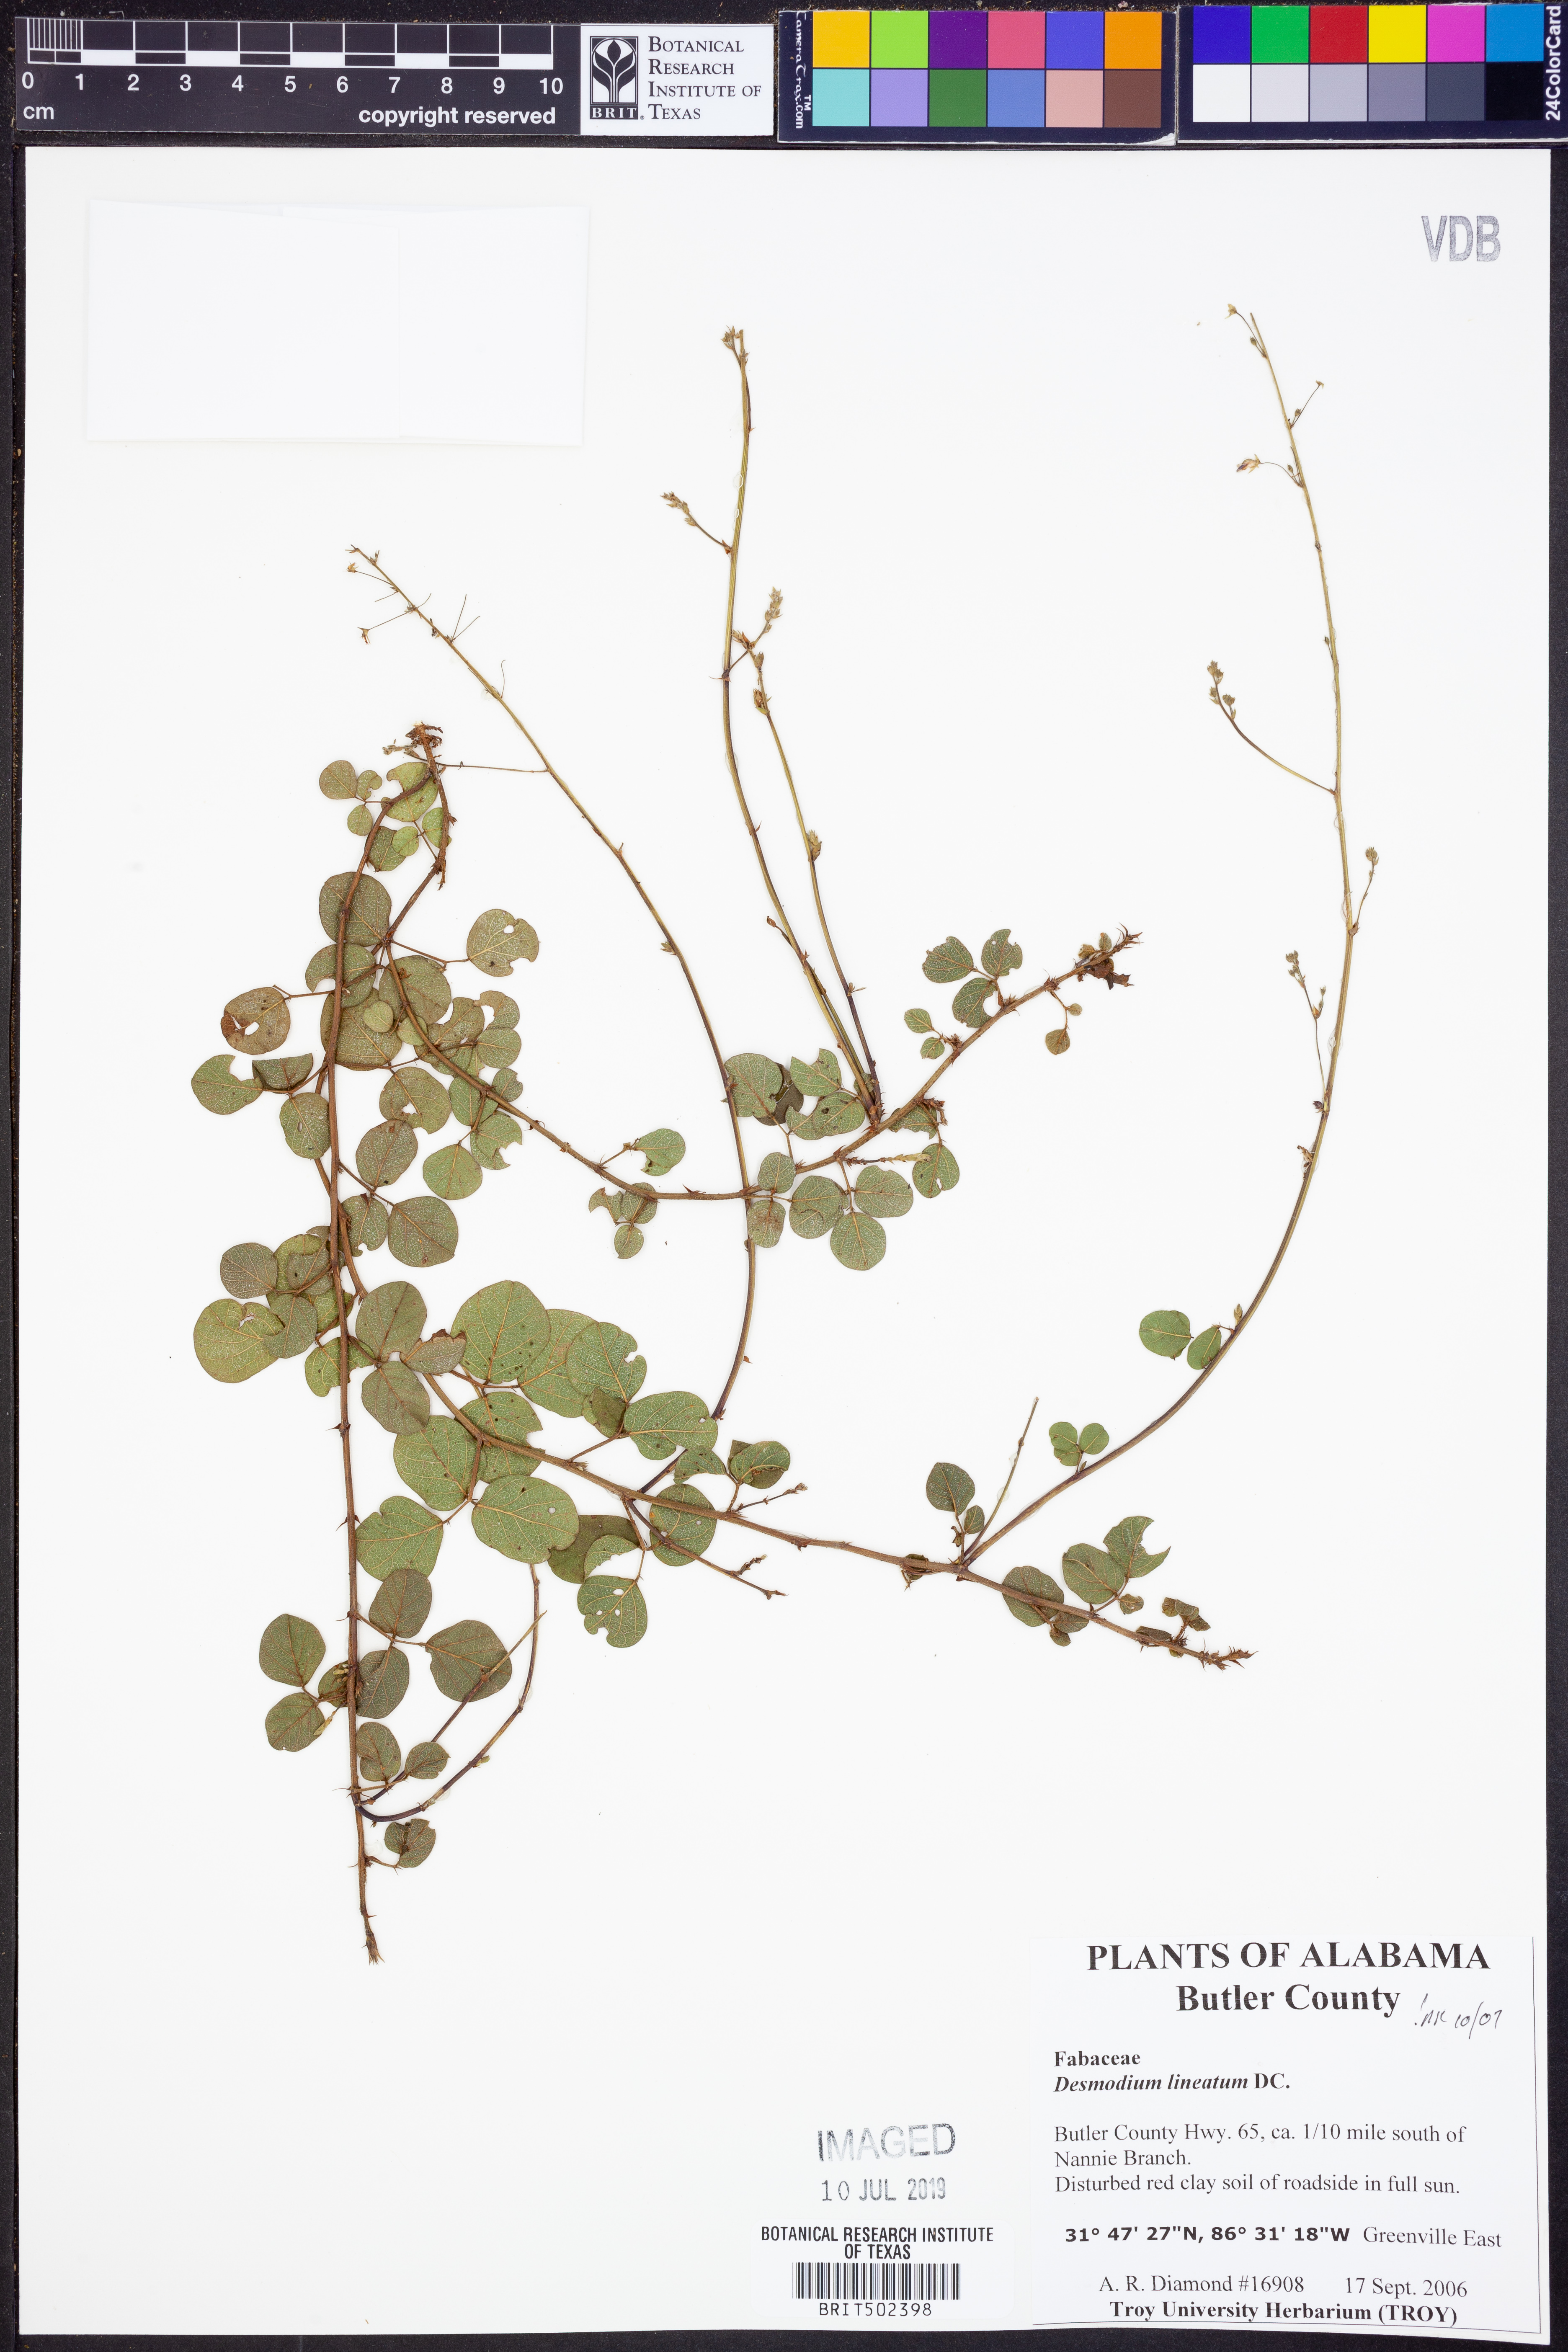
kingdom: Plantae
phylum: Tracheophyta
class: Magnoliopsida
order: Fabales
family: Fabaceae
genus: Desmodium
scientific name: Desmodium lineatum
